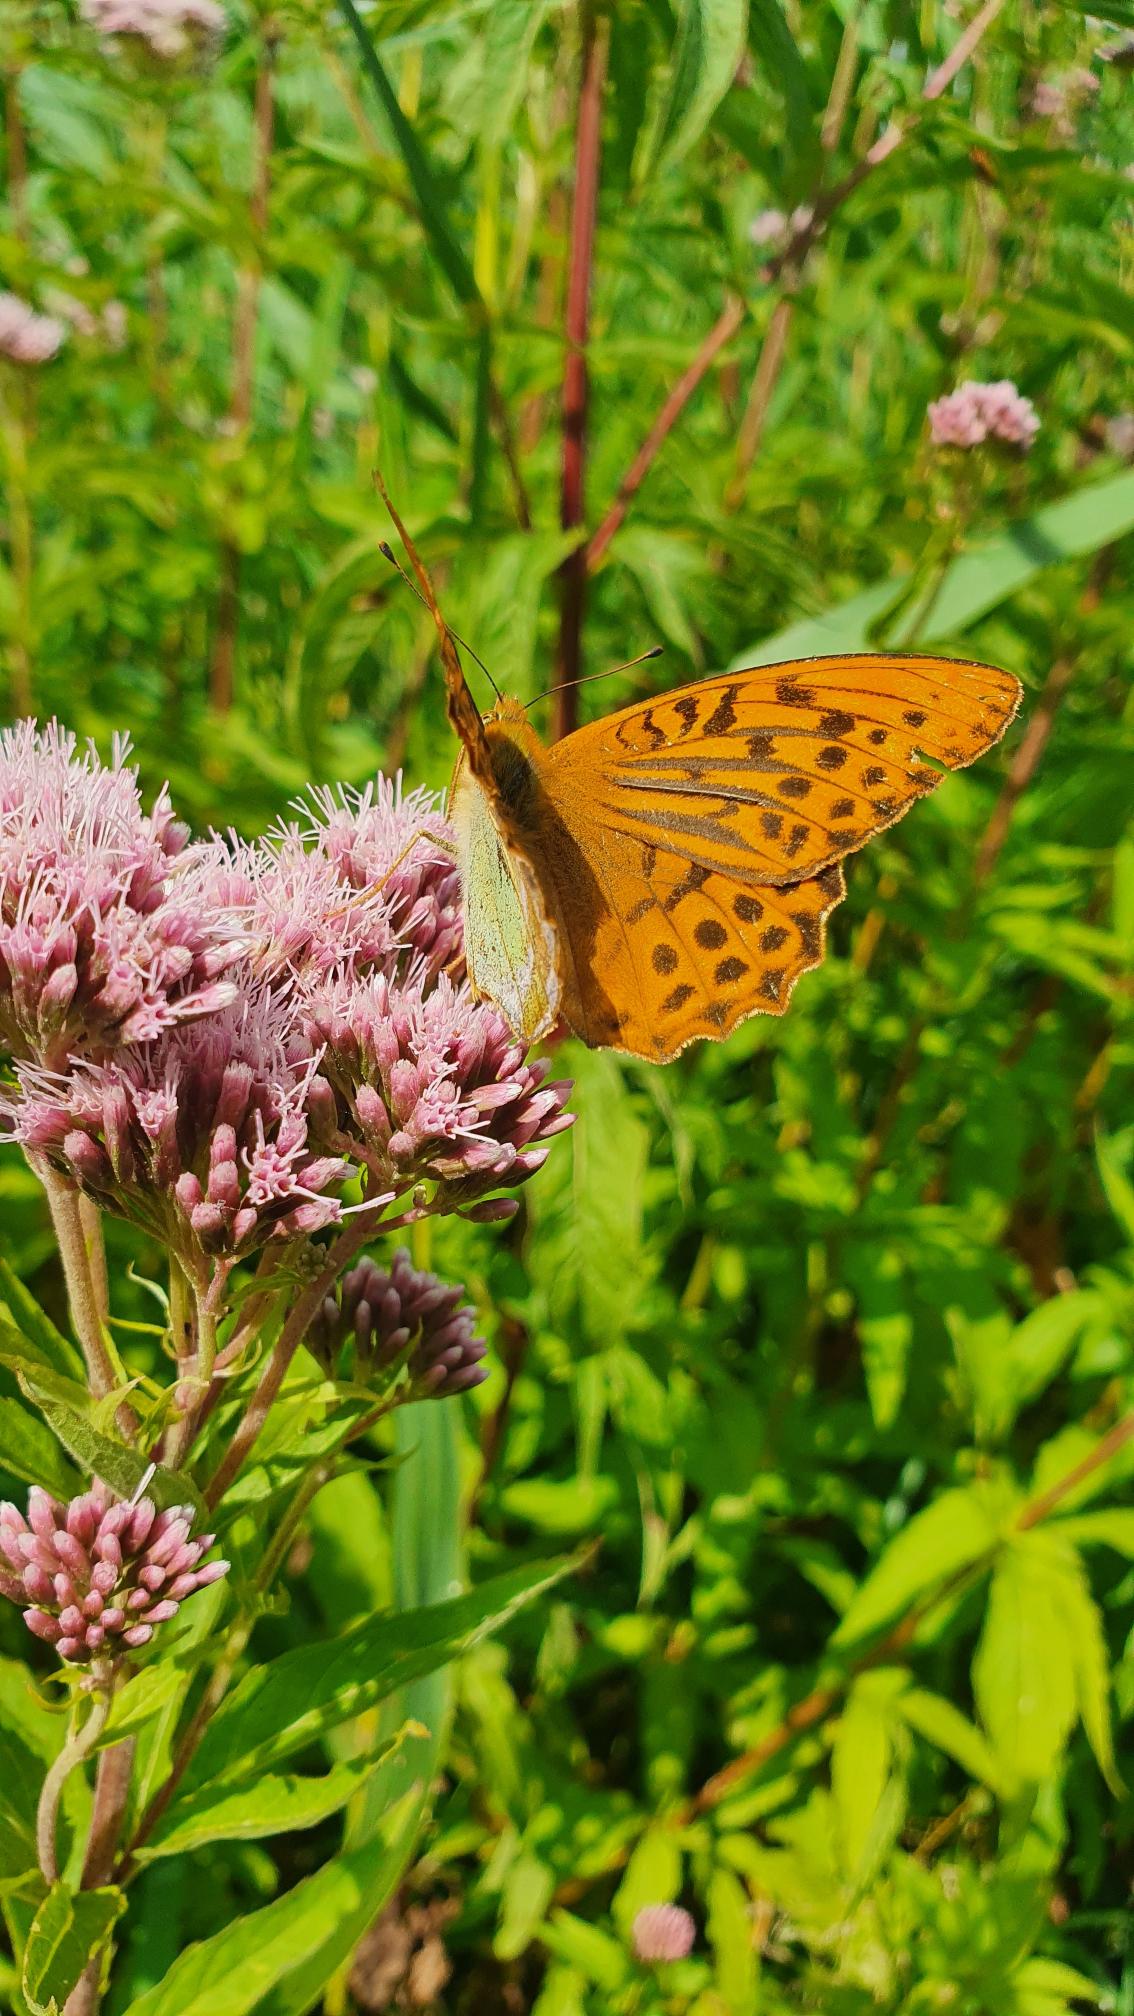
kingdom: Animalia
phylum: Arthropoda
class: Insecta
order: Lepidoptera
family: Nymphalidae
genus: Argynnis
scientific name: Argynnis paphia
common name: Kejserkåbe
